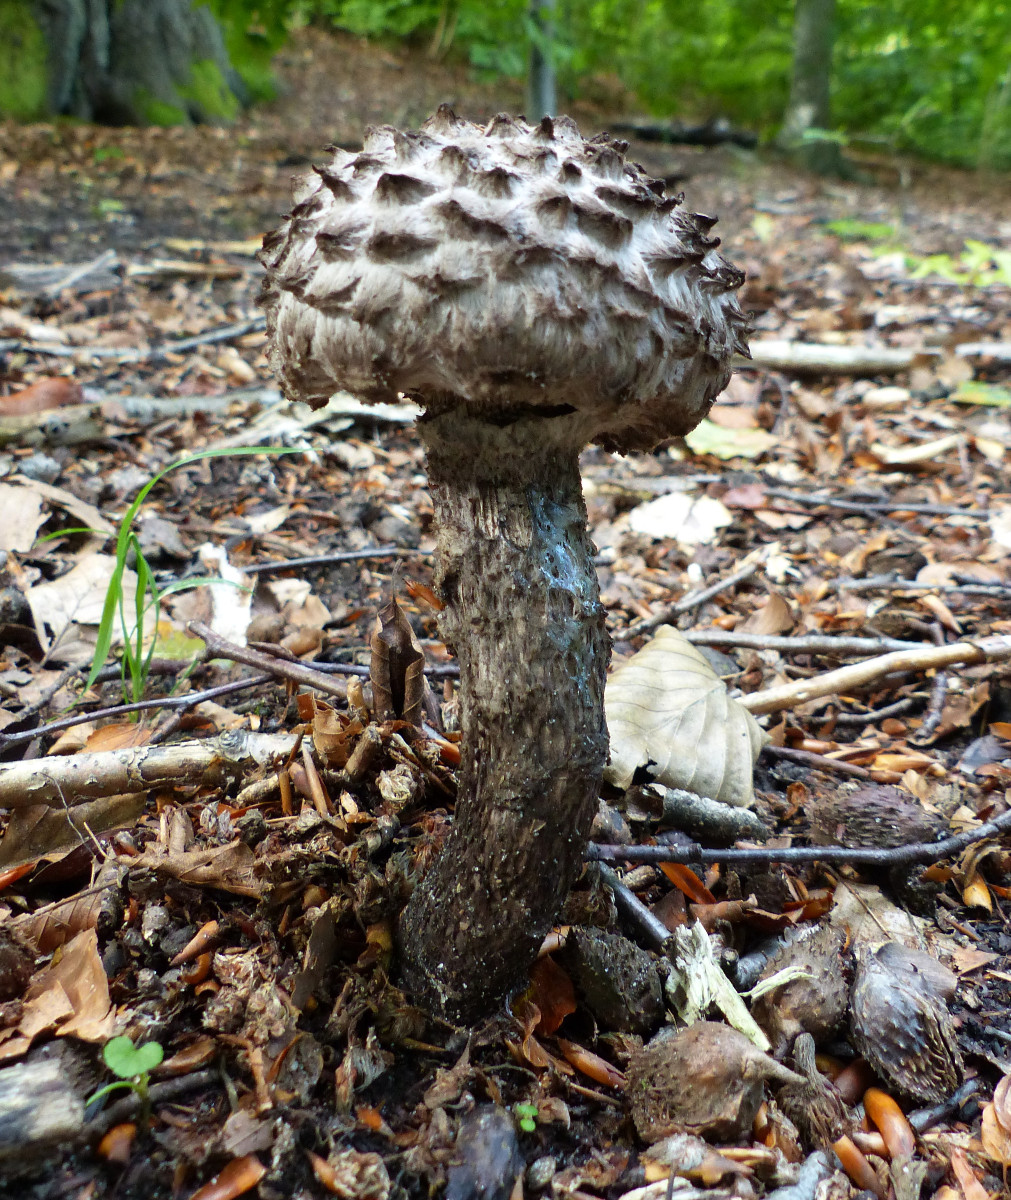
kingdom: Fungi
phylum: Basidiomycota
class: Agaricomycetes
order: Boletales
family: Boletaceae
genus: Strobilomyces
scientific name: Strobilomyces strobilaceus
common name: koglerørhat
